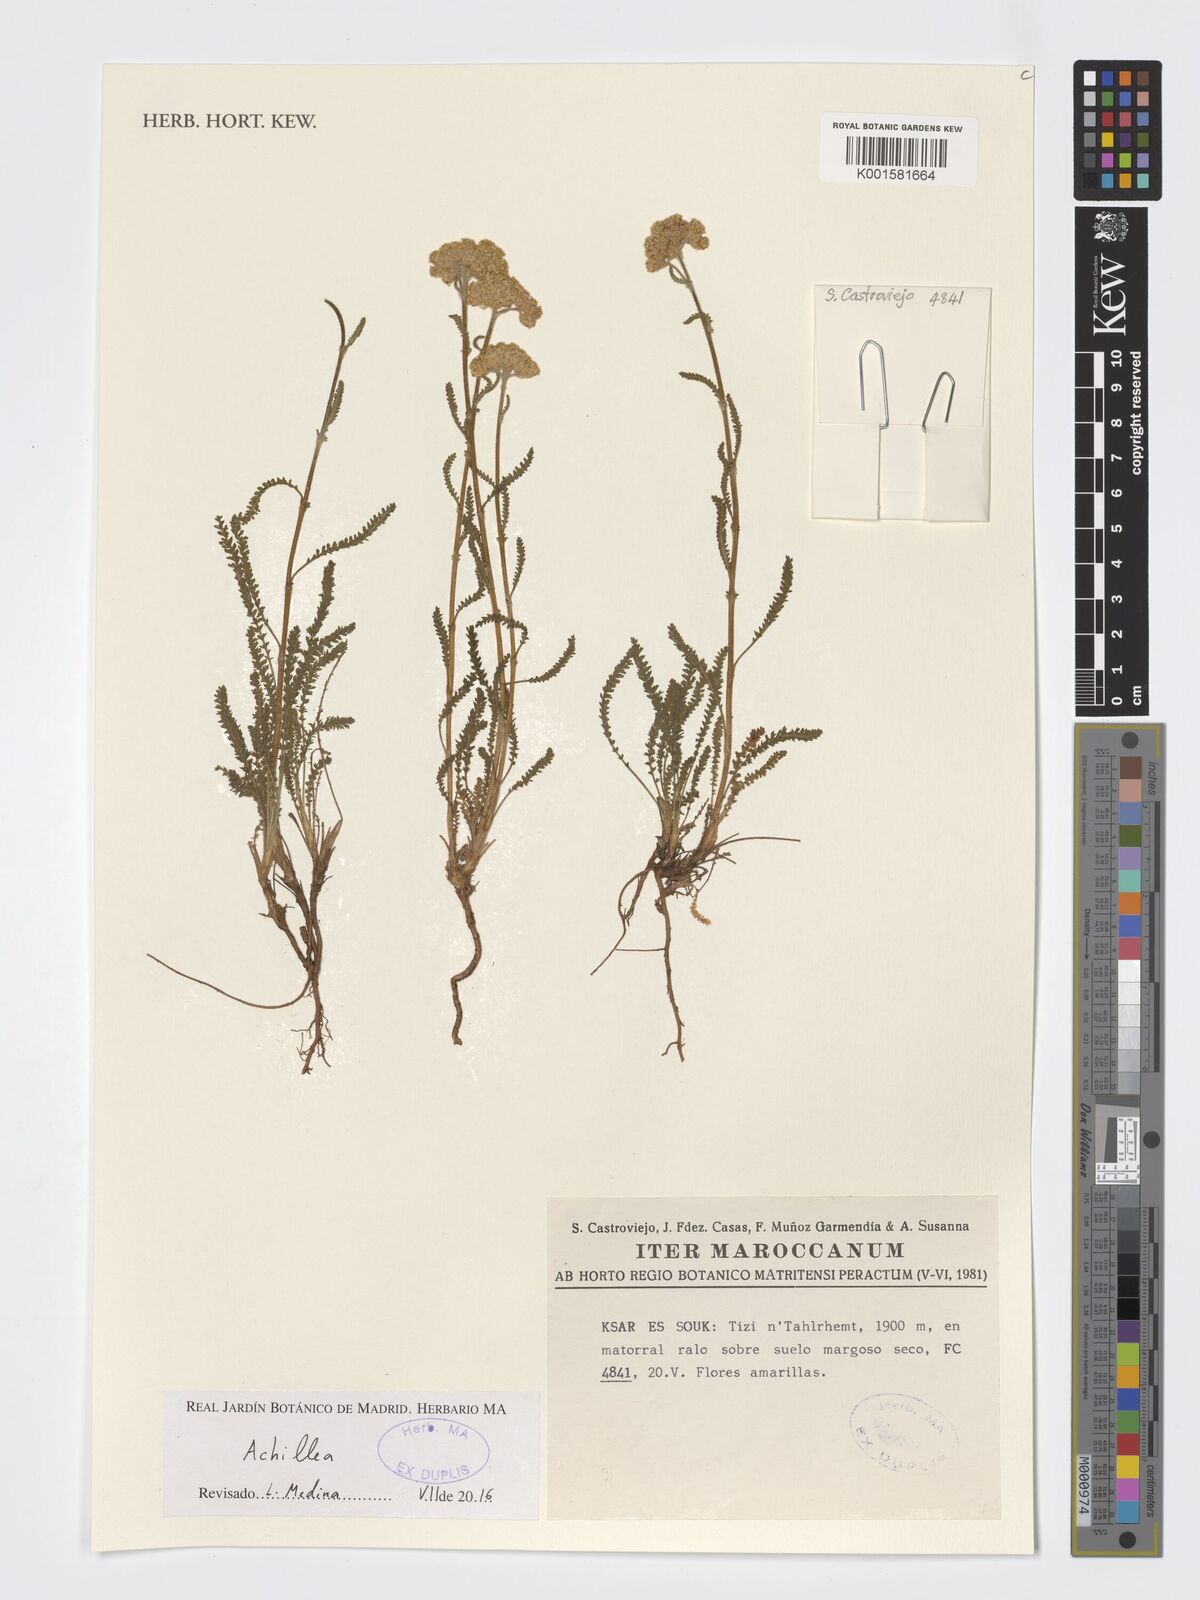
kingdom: Plantae
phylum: Tracheophyta
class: Magnoliopsida
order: Asterales
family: Asteraceae
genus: Achillea
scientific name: Achillea
